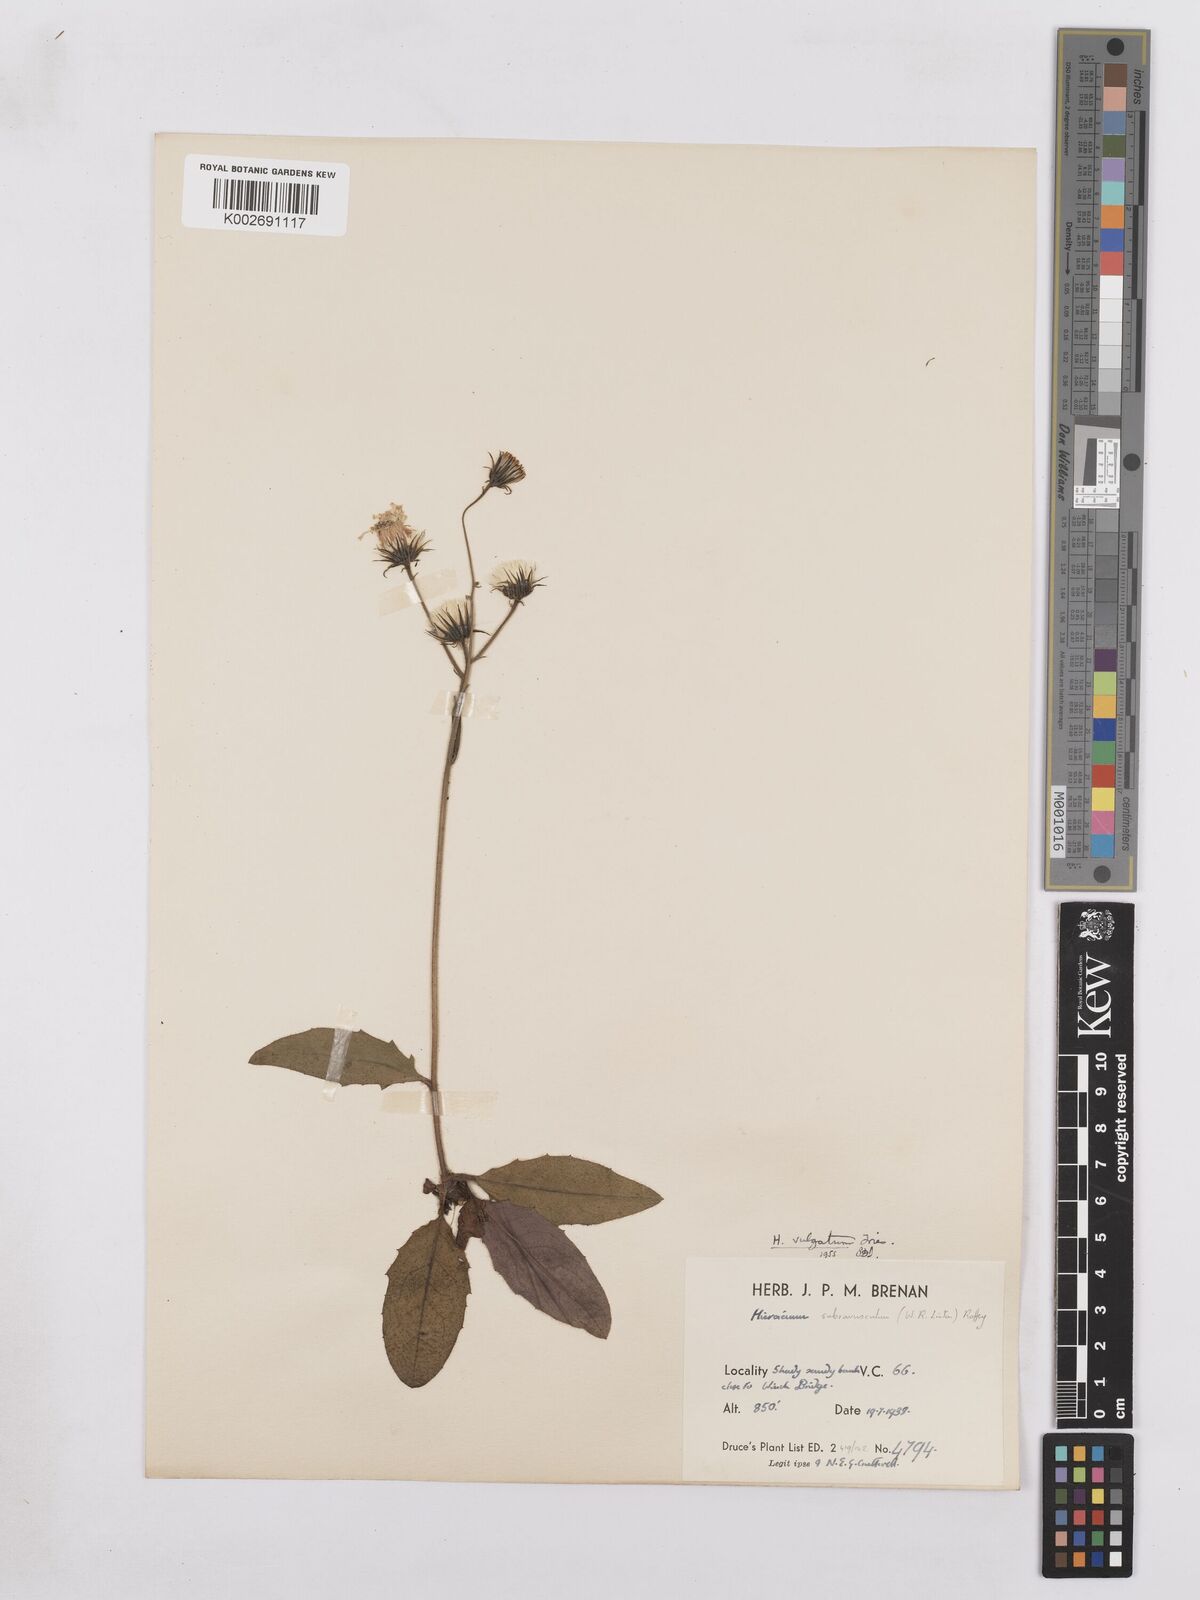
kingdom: Plantae
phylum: Tracheophyta
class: Magnoliopsida
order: Asterales
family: Asteraceae
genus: Hieracium
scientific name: Hieracium lachenalii
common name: Common hawkweed
